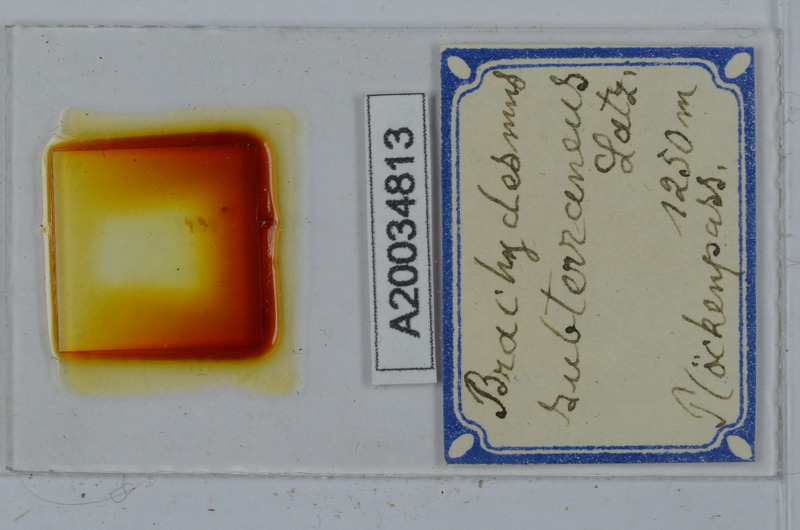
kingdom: Animalia
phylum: Arthropoda
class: Diplopoda
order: Polydesmida
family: Polydesmidae
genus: Brachydesmus
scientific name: Brachydesmus subterraneus
